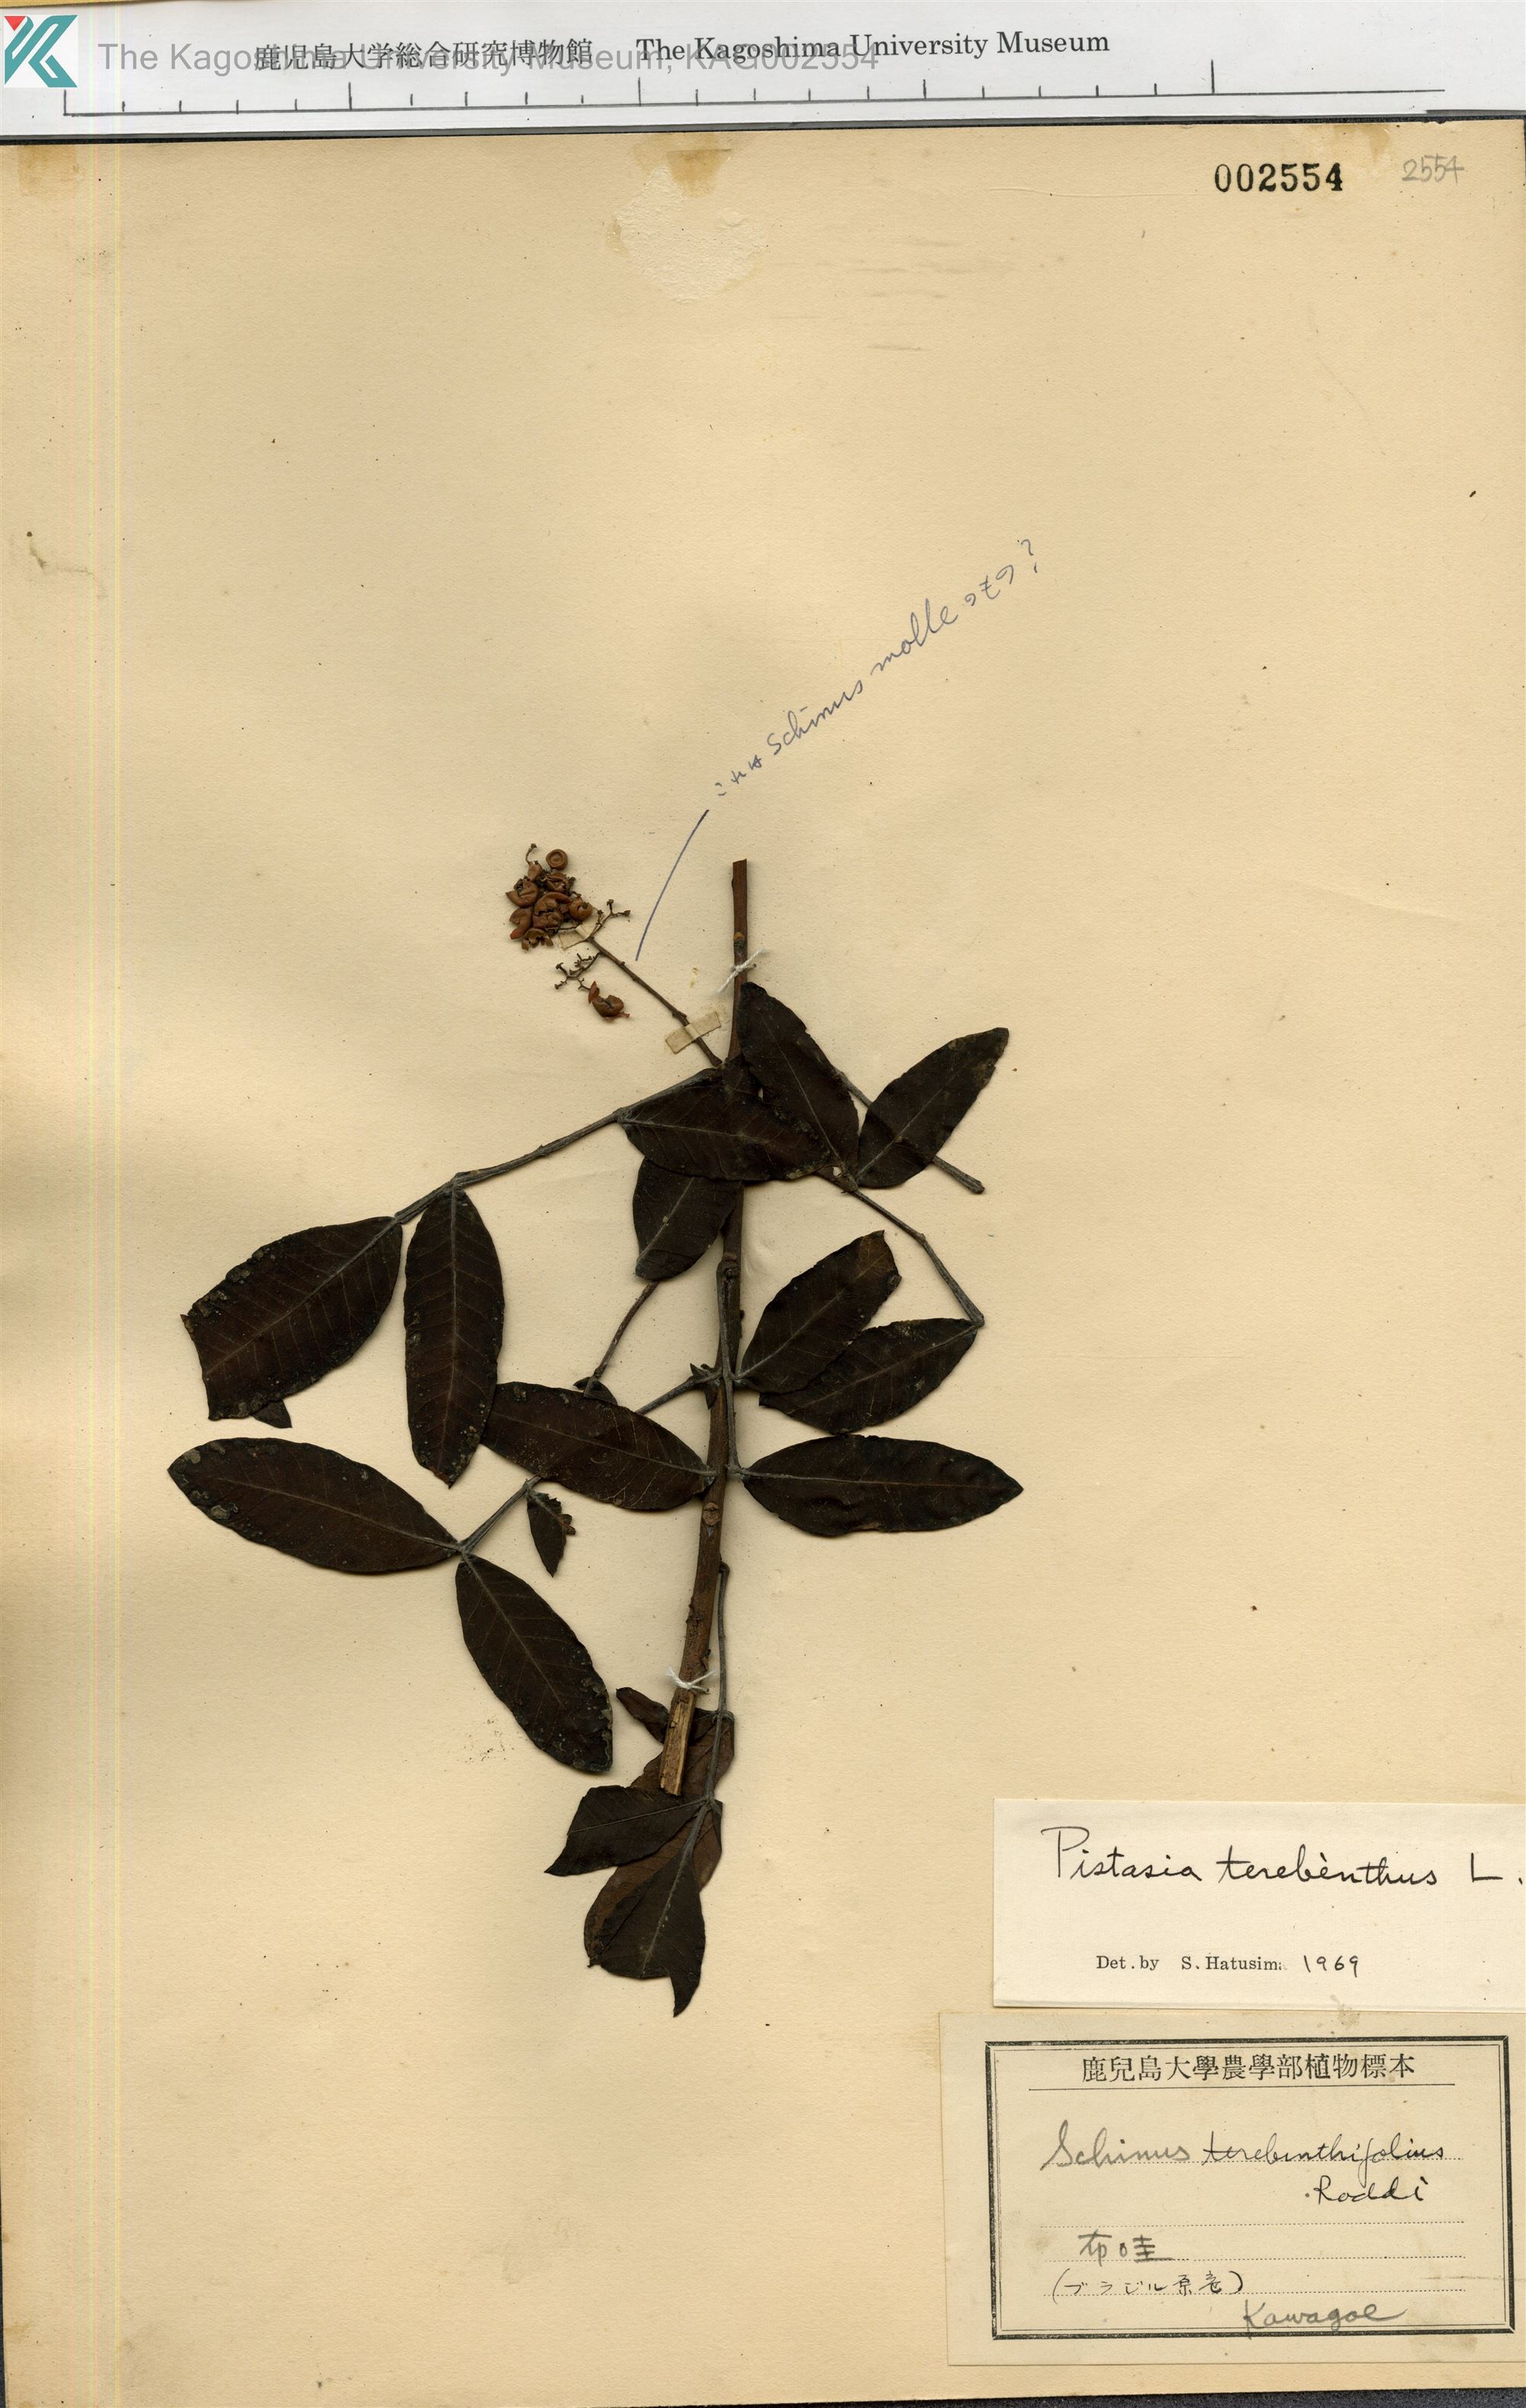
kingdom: Plantae
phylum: Tracheophyta
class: Magnoliopsida
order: Sapindales
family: Anacardiaceae
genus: Pistacia
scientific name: Pistacia terebinthus
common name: Terebinth
